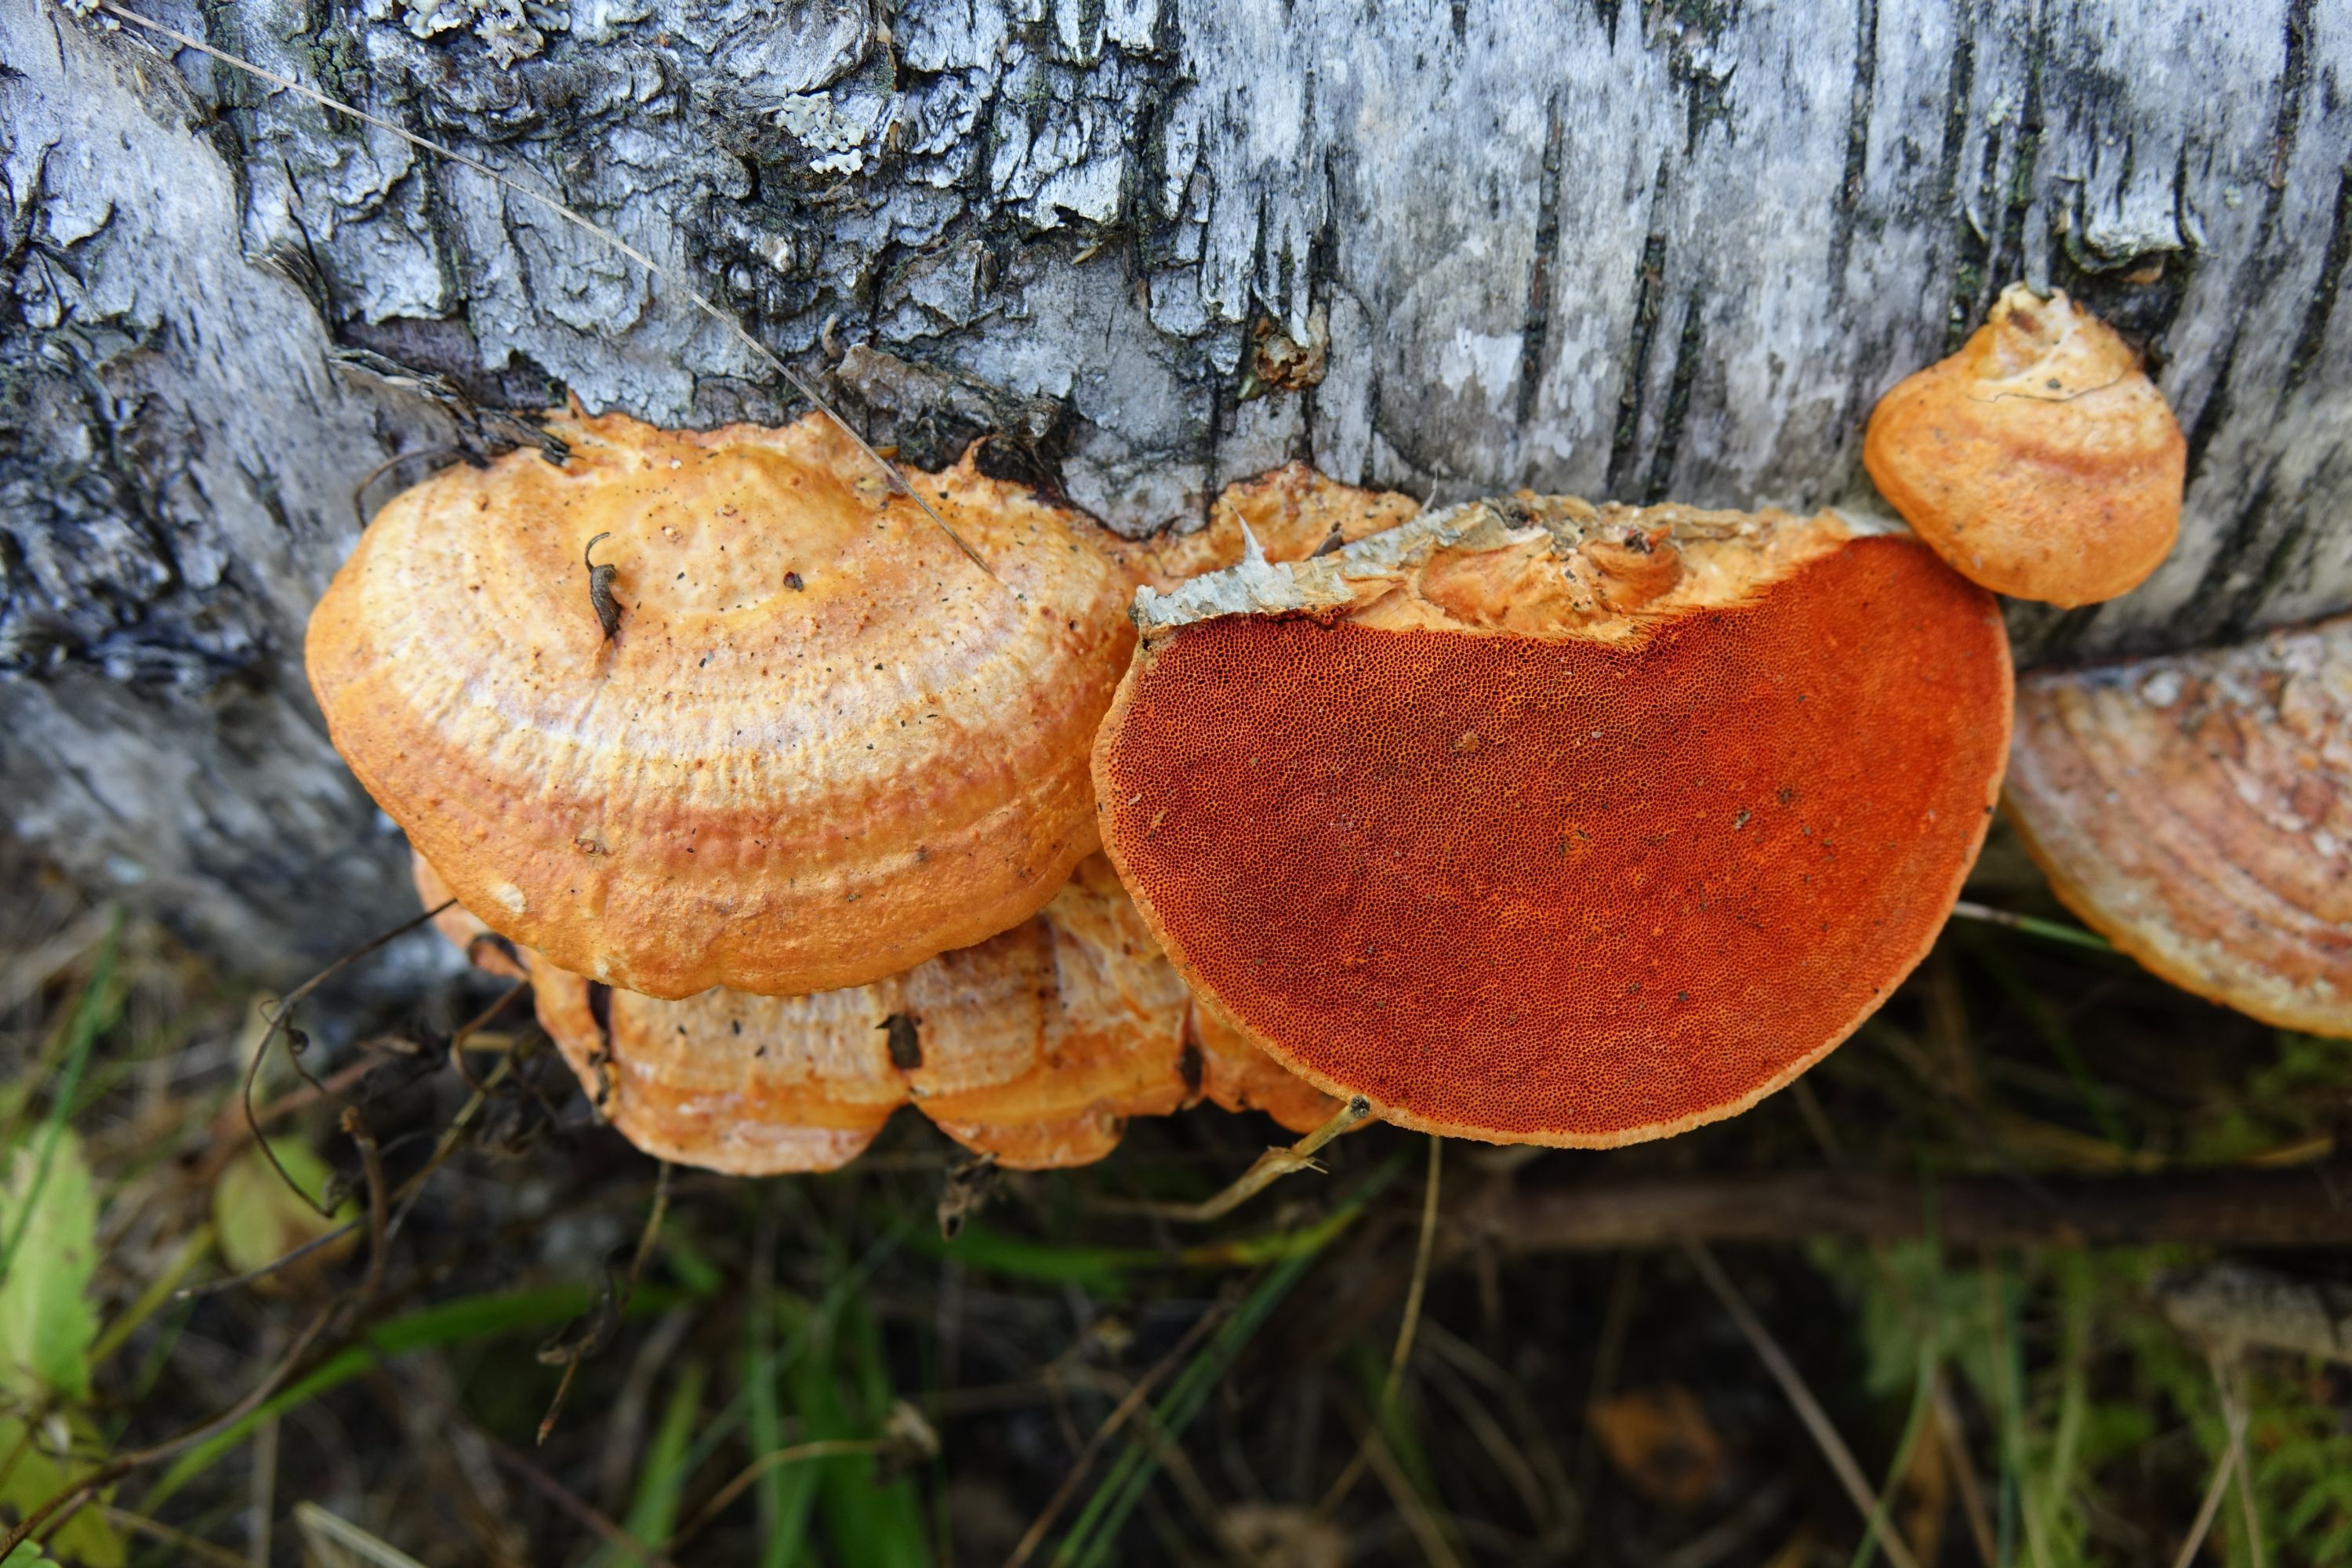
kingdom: Fungi
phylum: Basidiomycota
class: Agaricomycetes
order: Polyporales
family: Polyporaceae
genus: Trametes
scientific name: Trametes cinnabarina
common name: Northern cinnabar polypore
